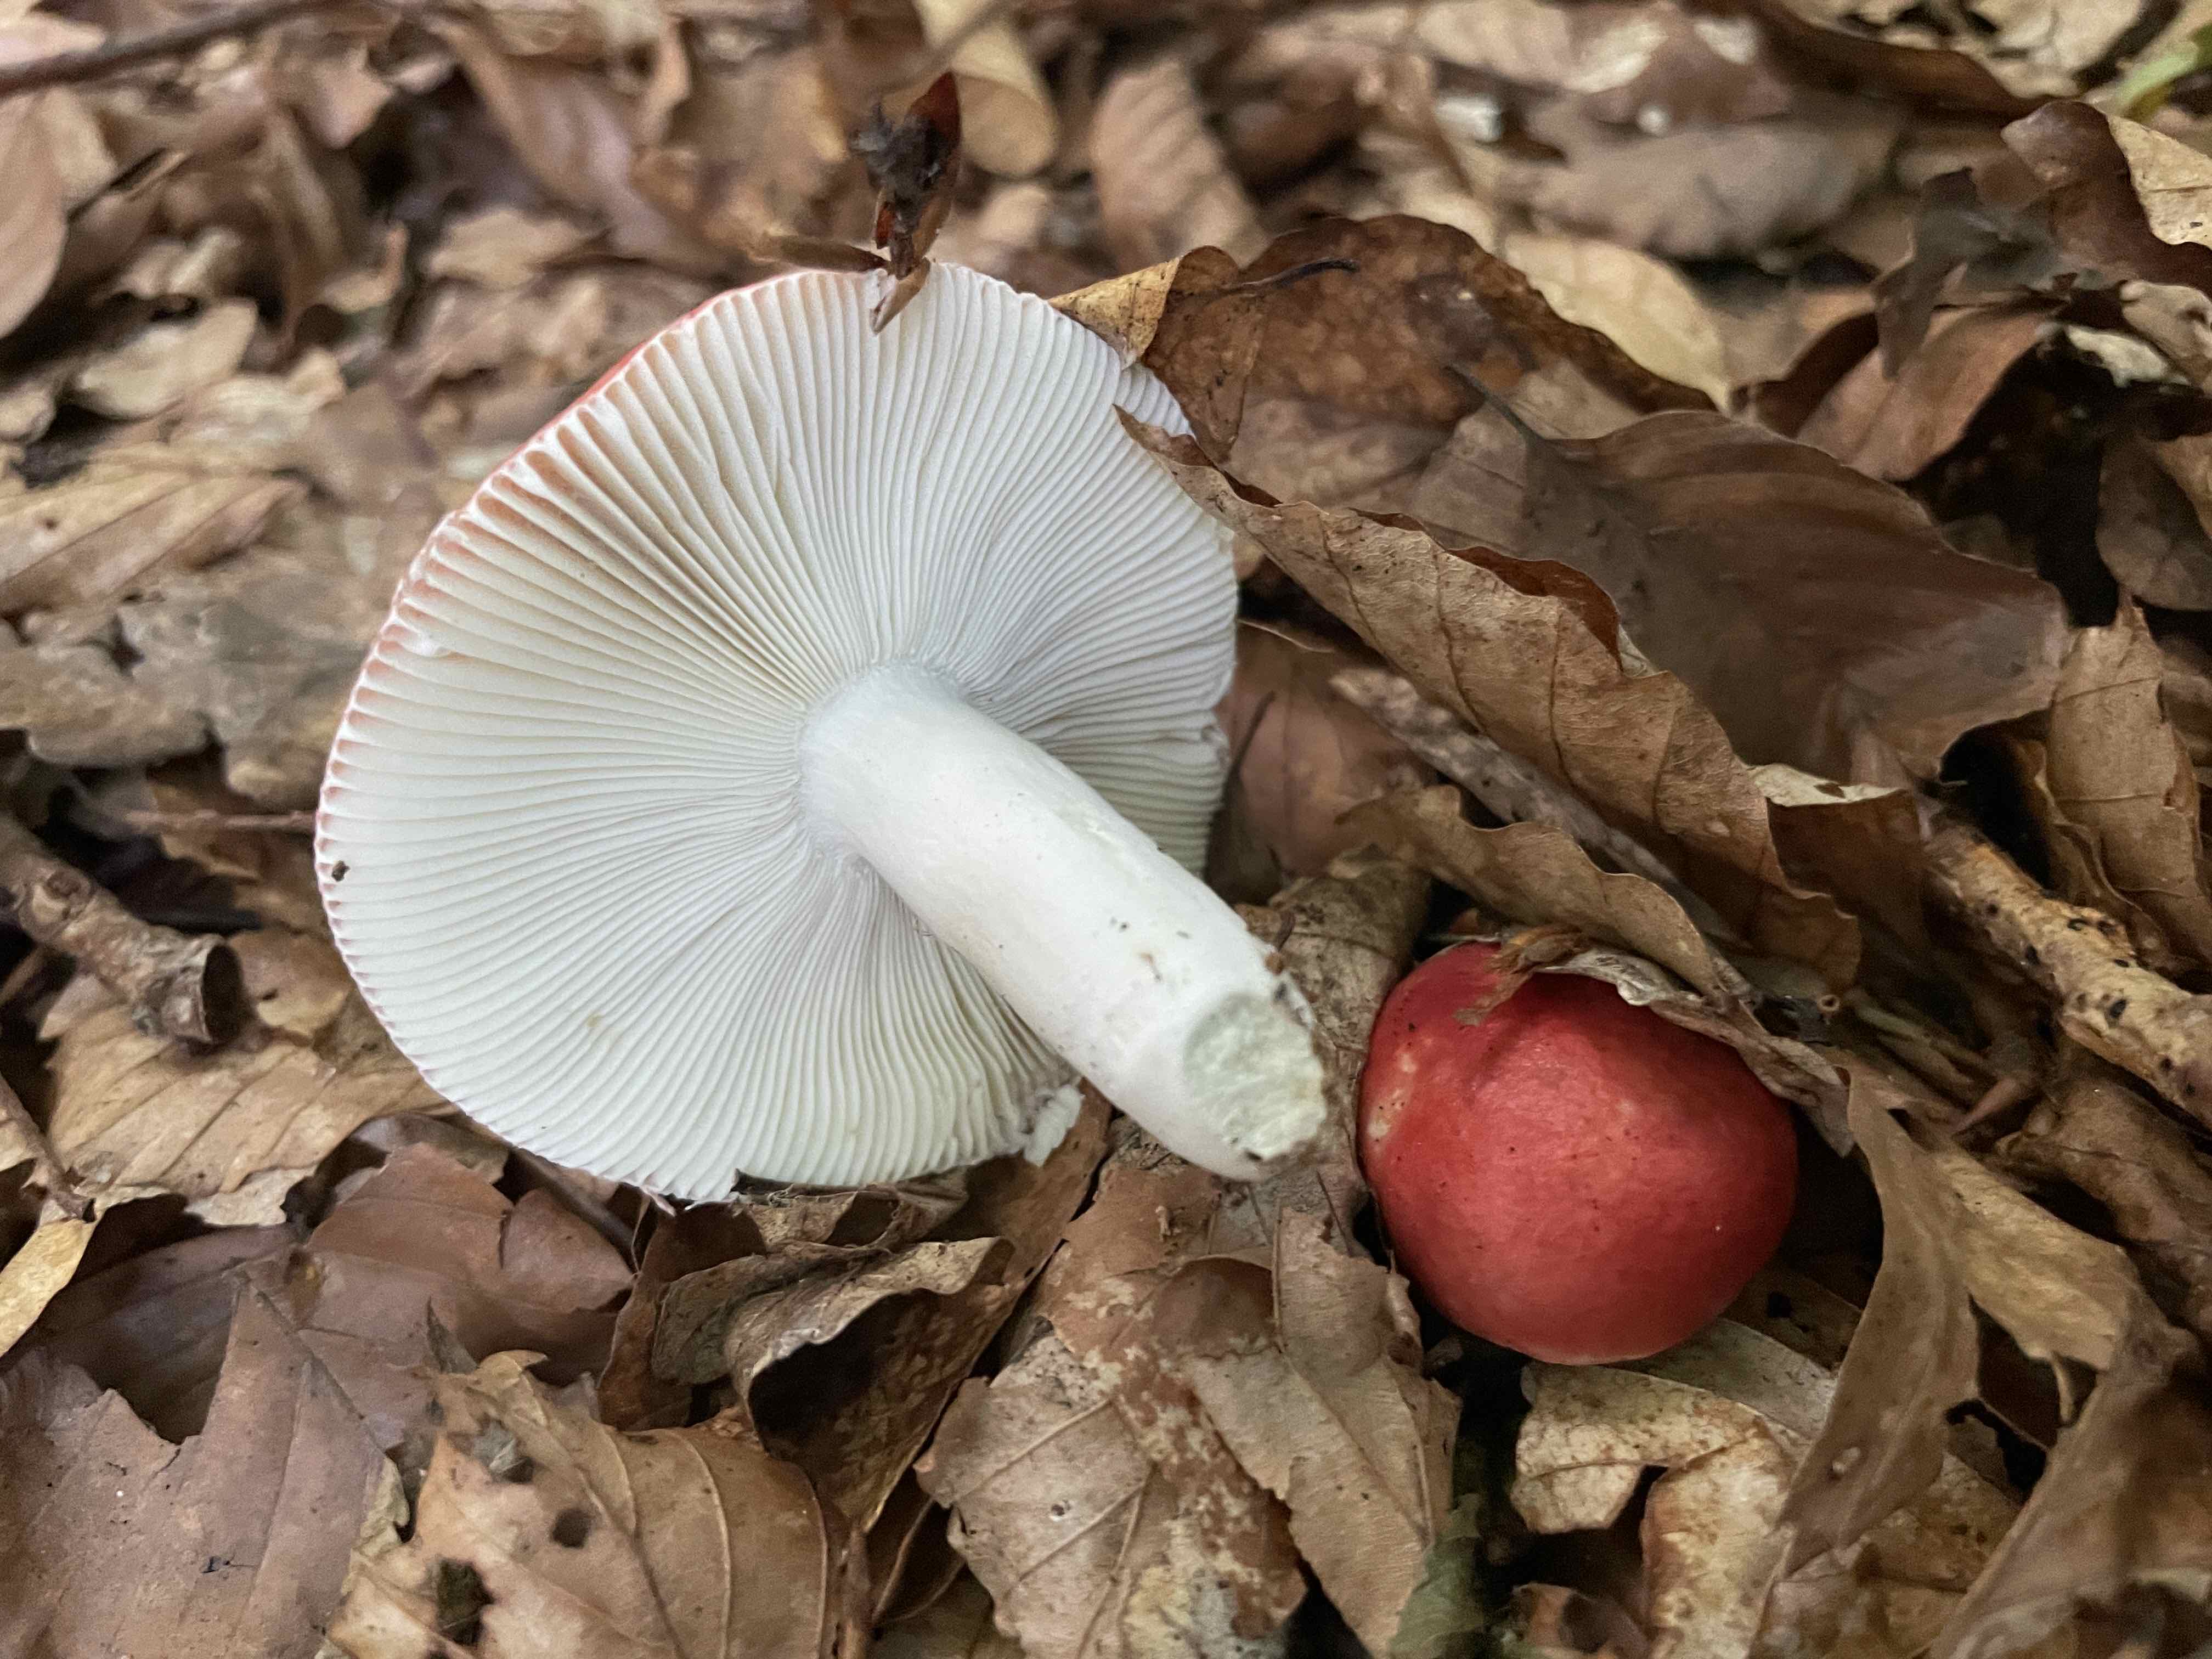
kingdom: Fungi
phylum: Basidiomycota
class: Agaricomycetes
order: Russulales
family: Russulaceae
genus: Russula
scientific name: Russula silvestris
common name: mellemstor gift-skørhat
